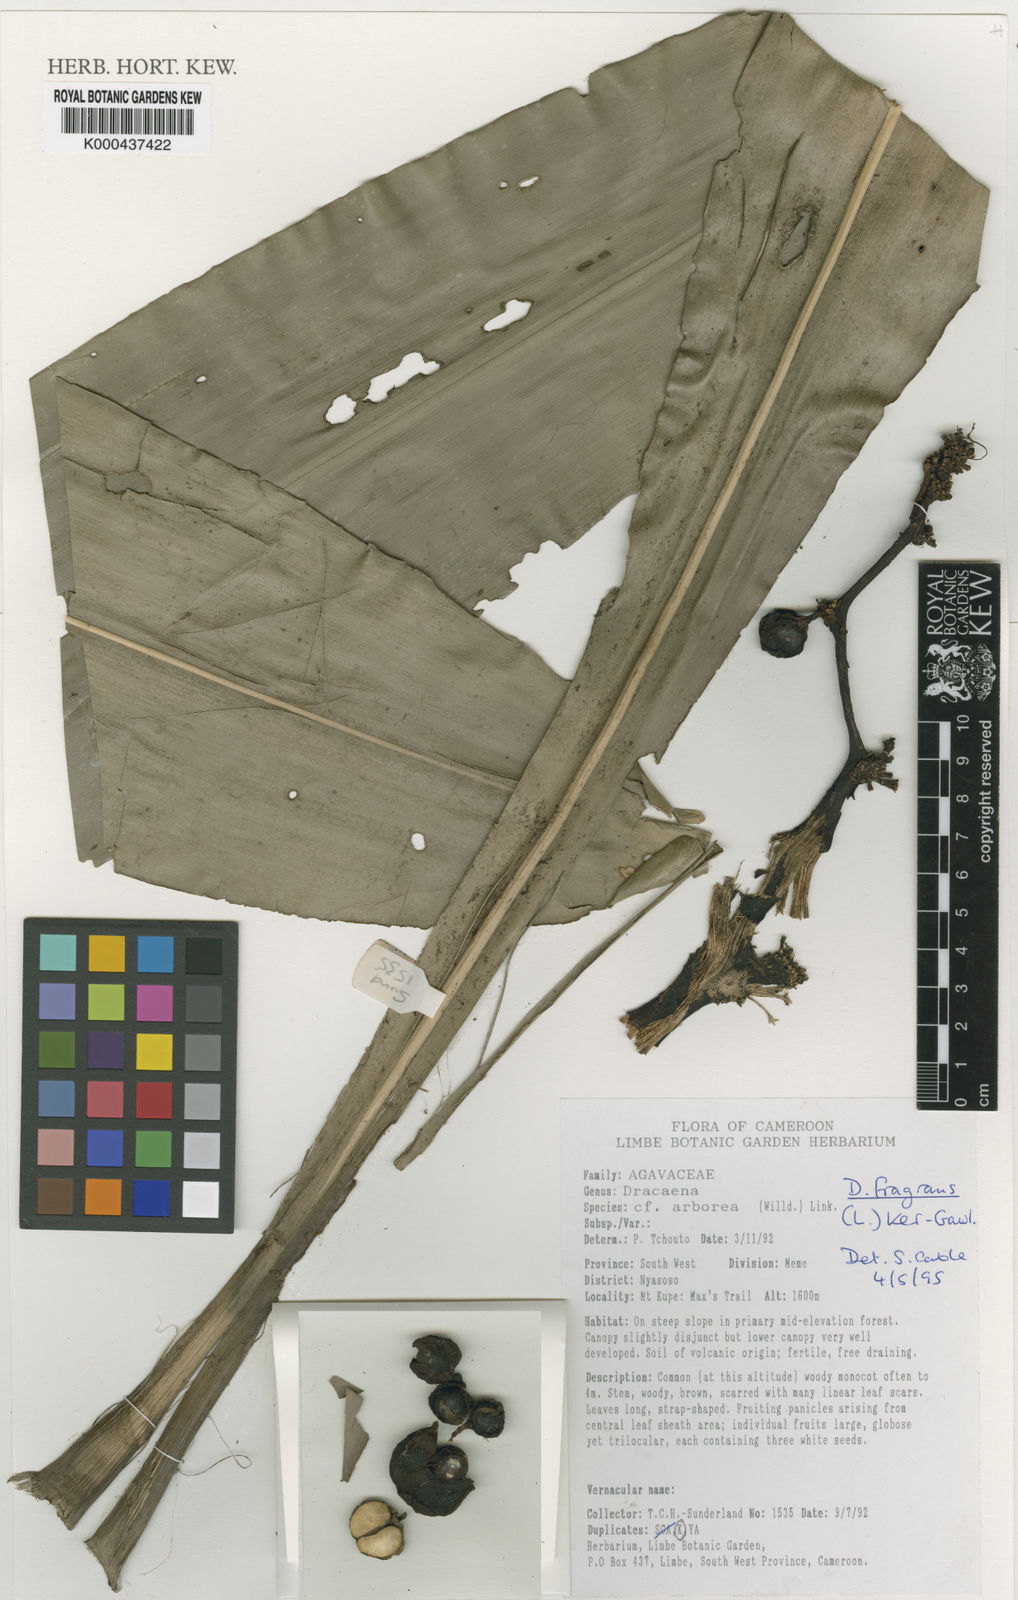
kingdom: Plantae
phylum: Tracheophyta
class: Liliopsida
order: Asparagales
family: Asparagaceae
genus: Dracaena
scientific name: Dracaena fragrans
